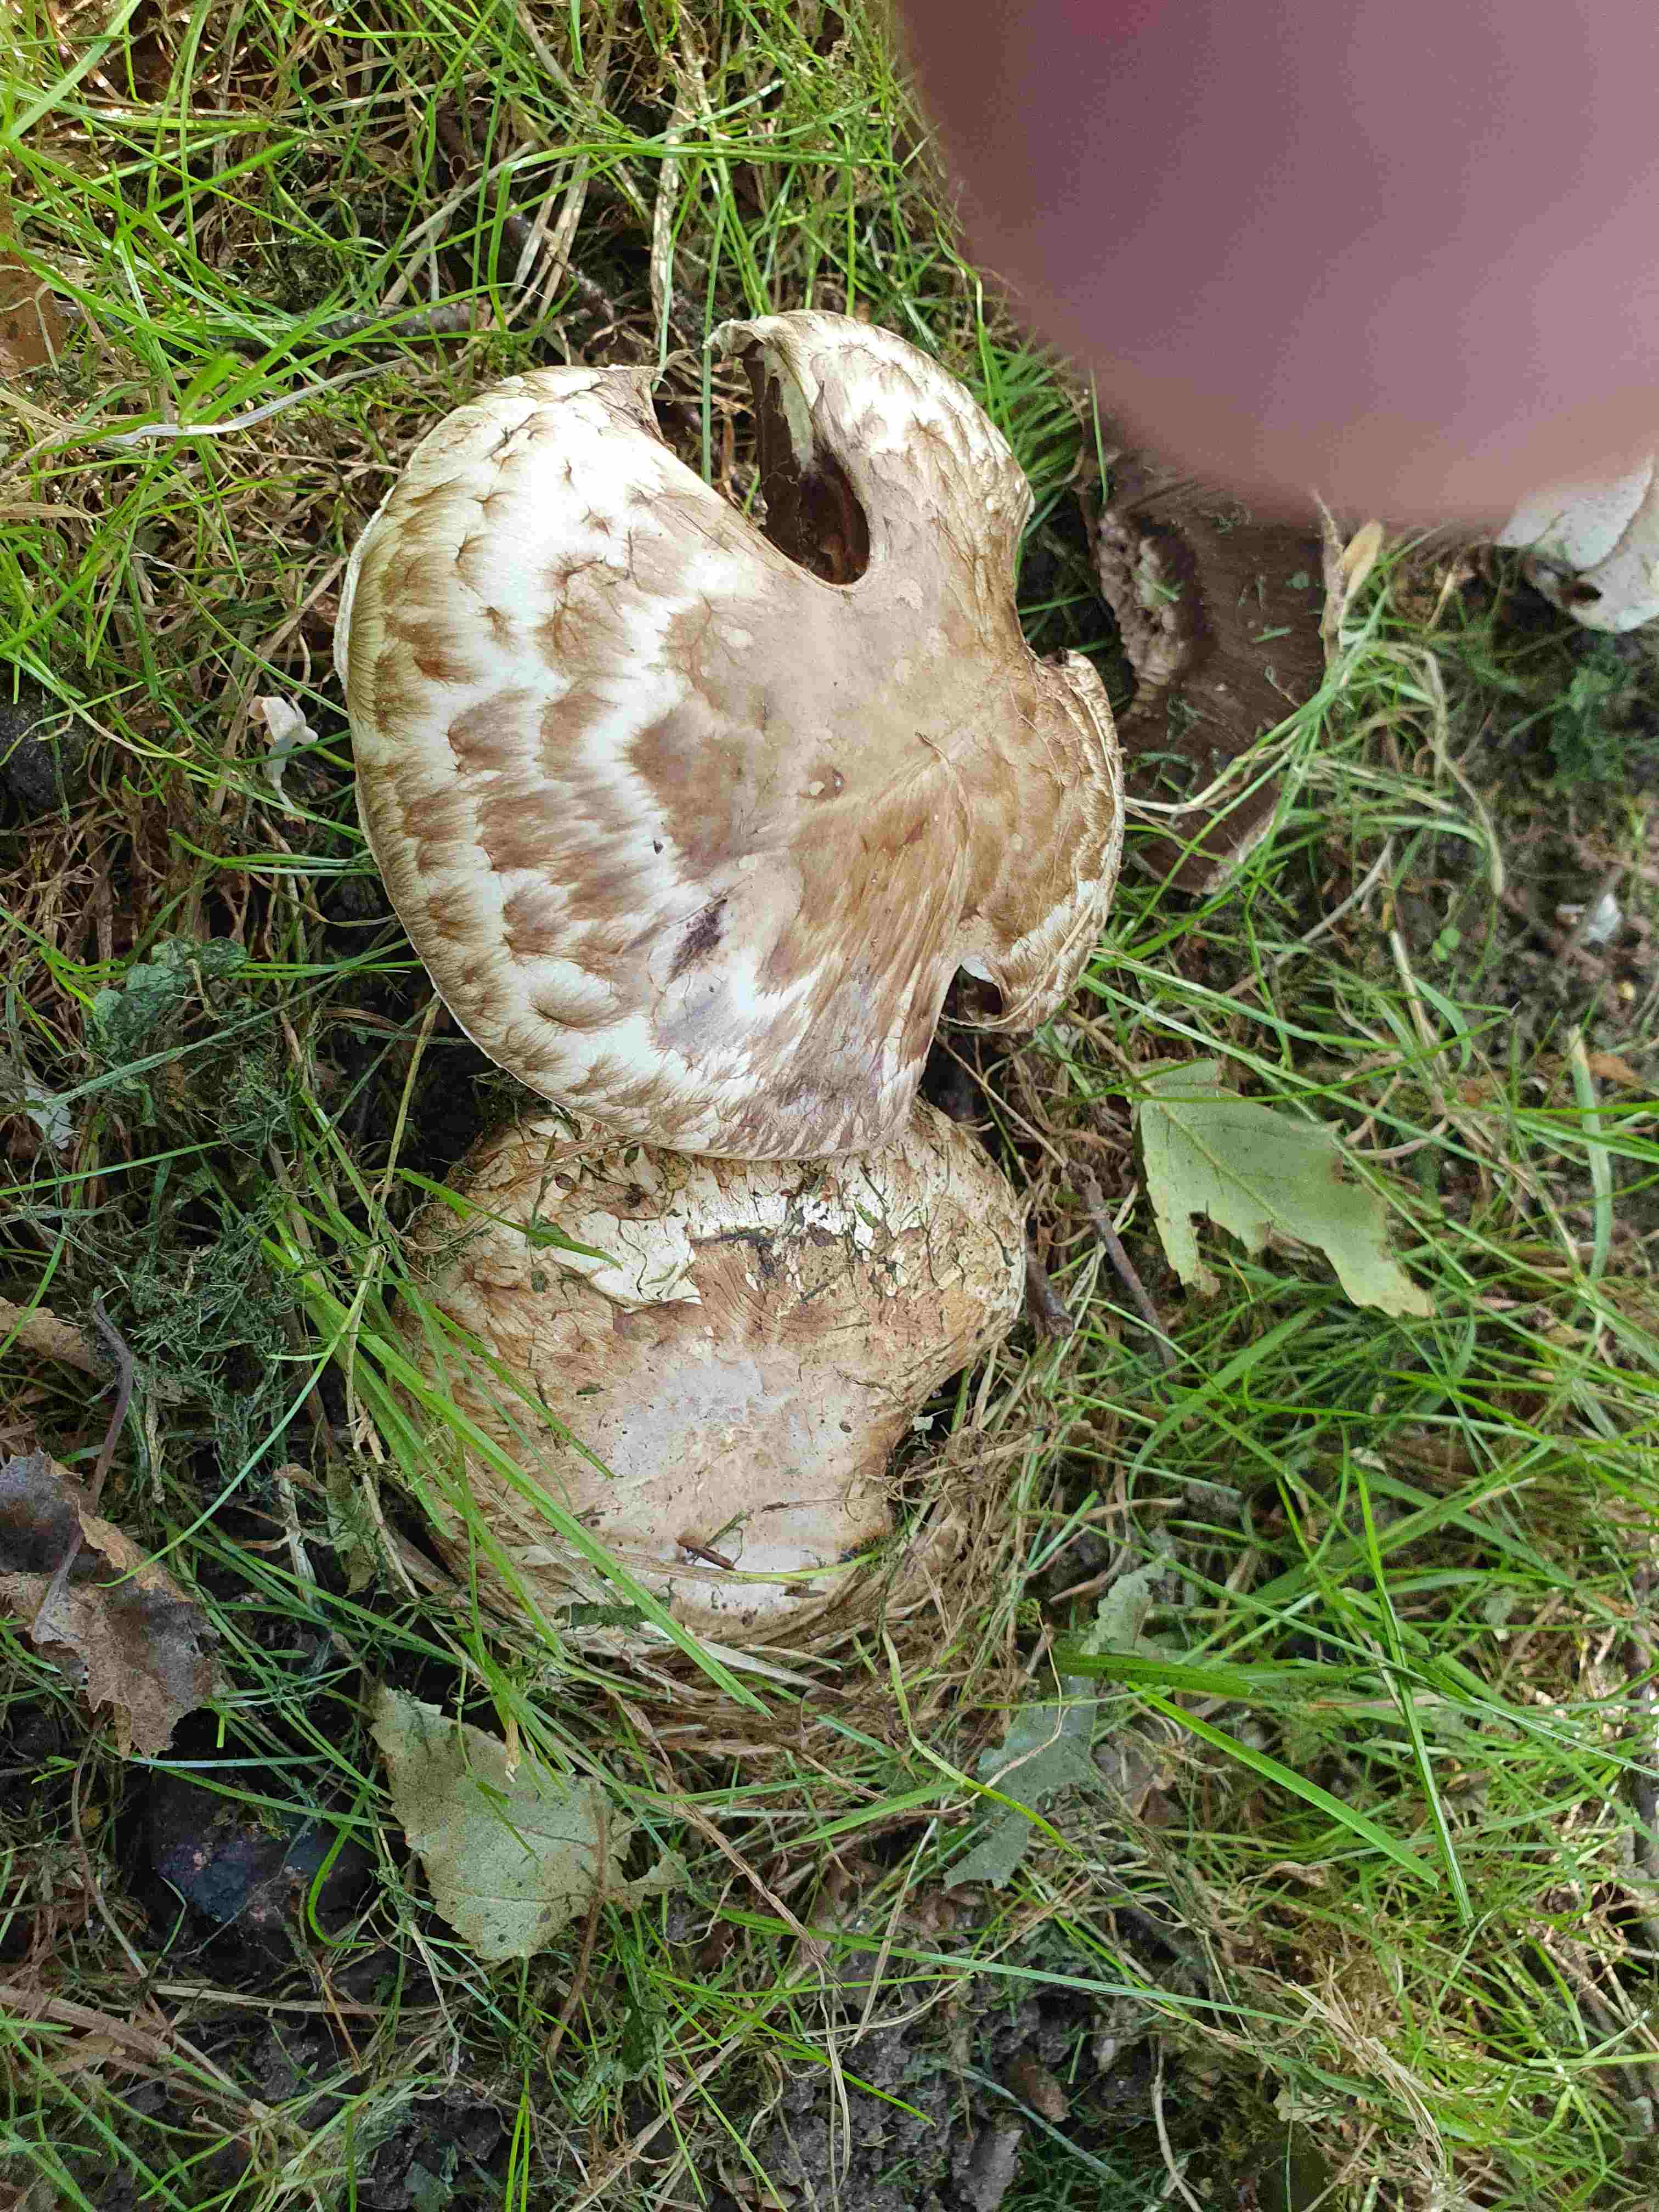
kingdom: Fungi
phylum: Basidiomycota
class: Agaricomycetes
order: Agaricales
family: Agaricaceae
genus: Agaricus
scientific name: Agaricus subperonatus
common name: knippe-champignon
